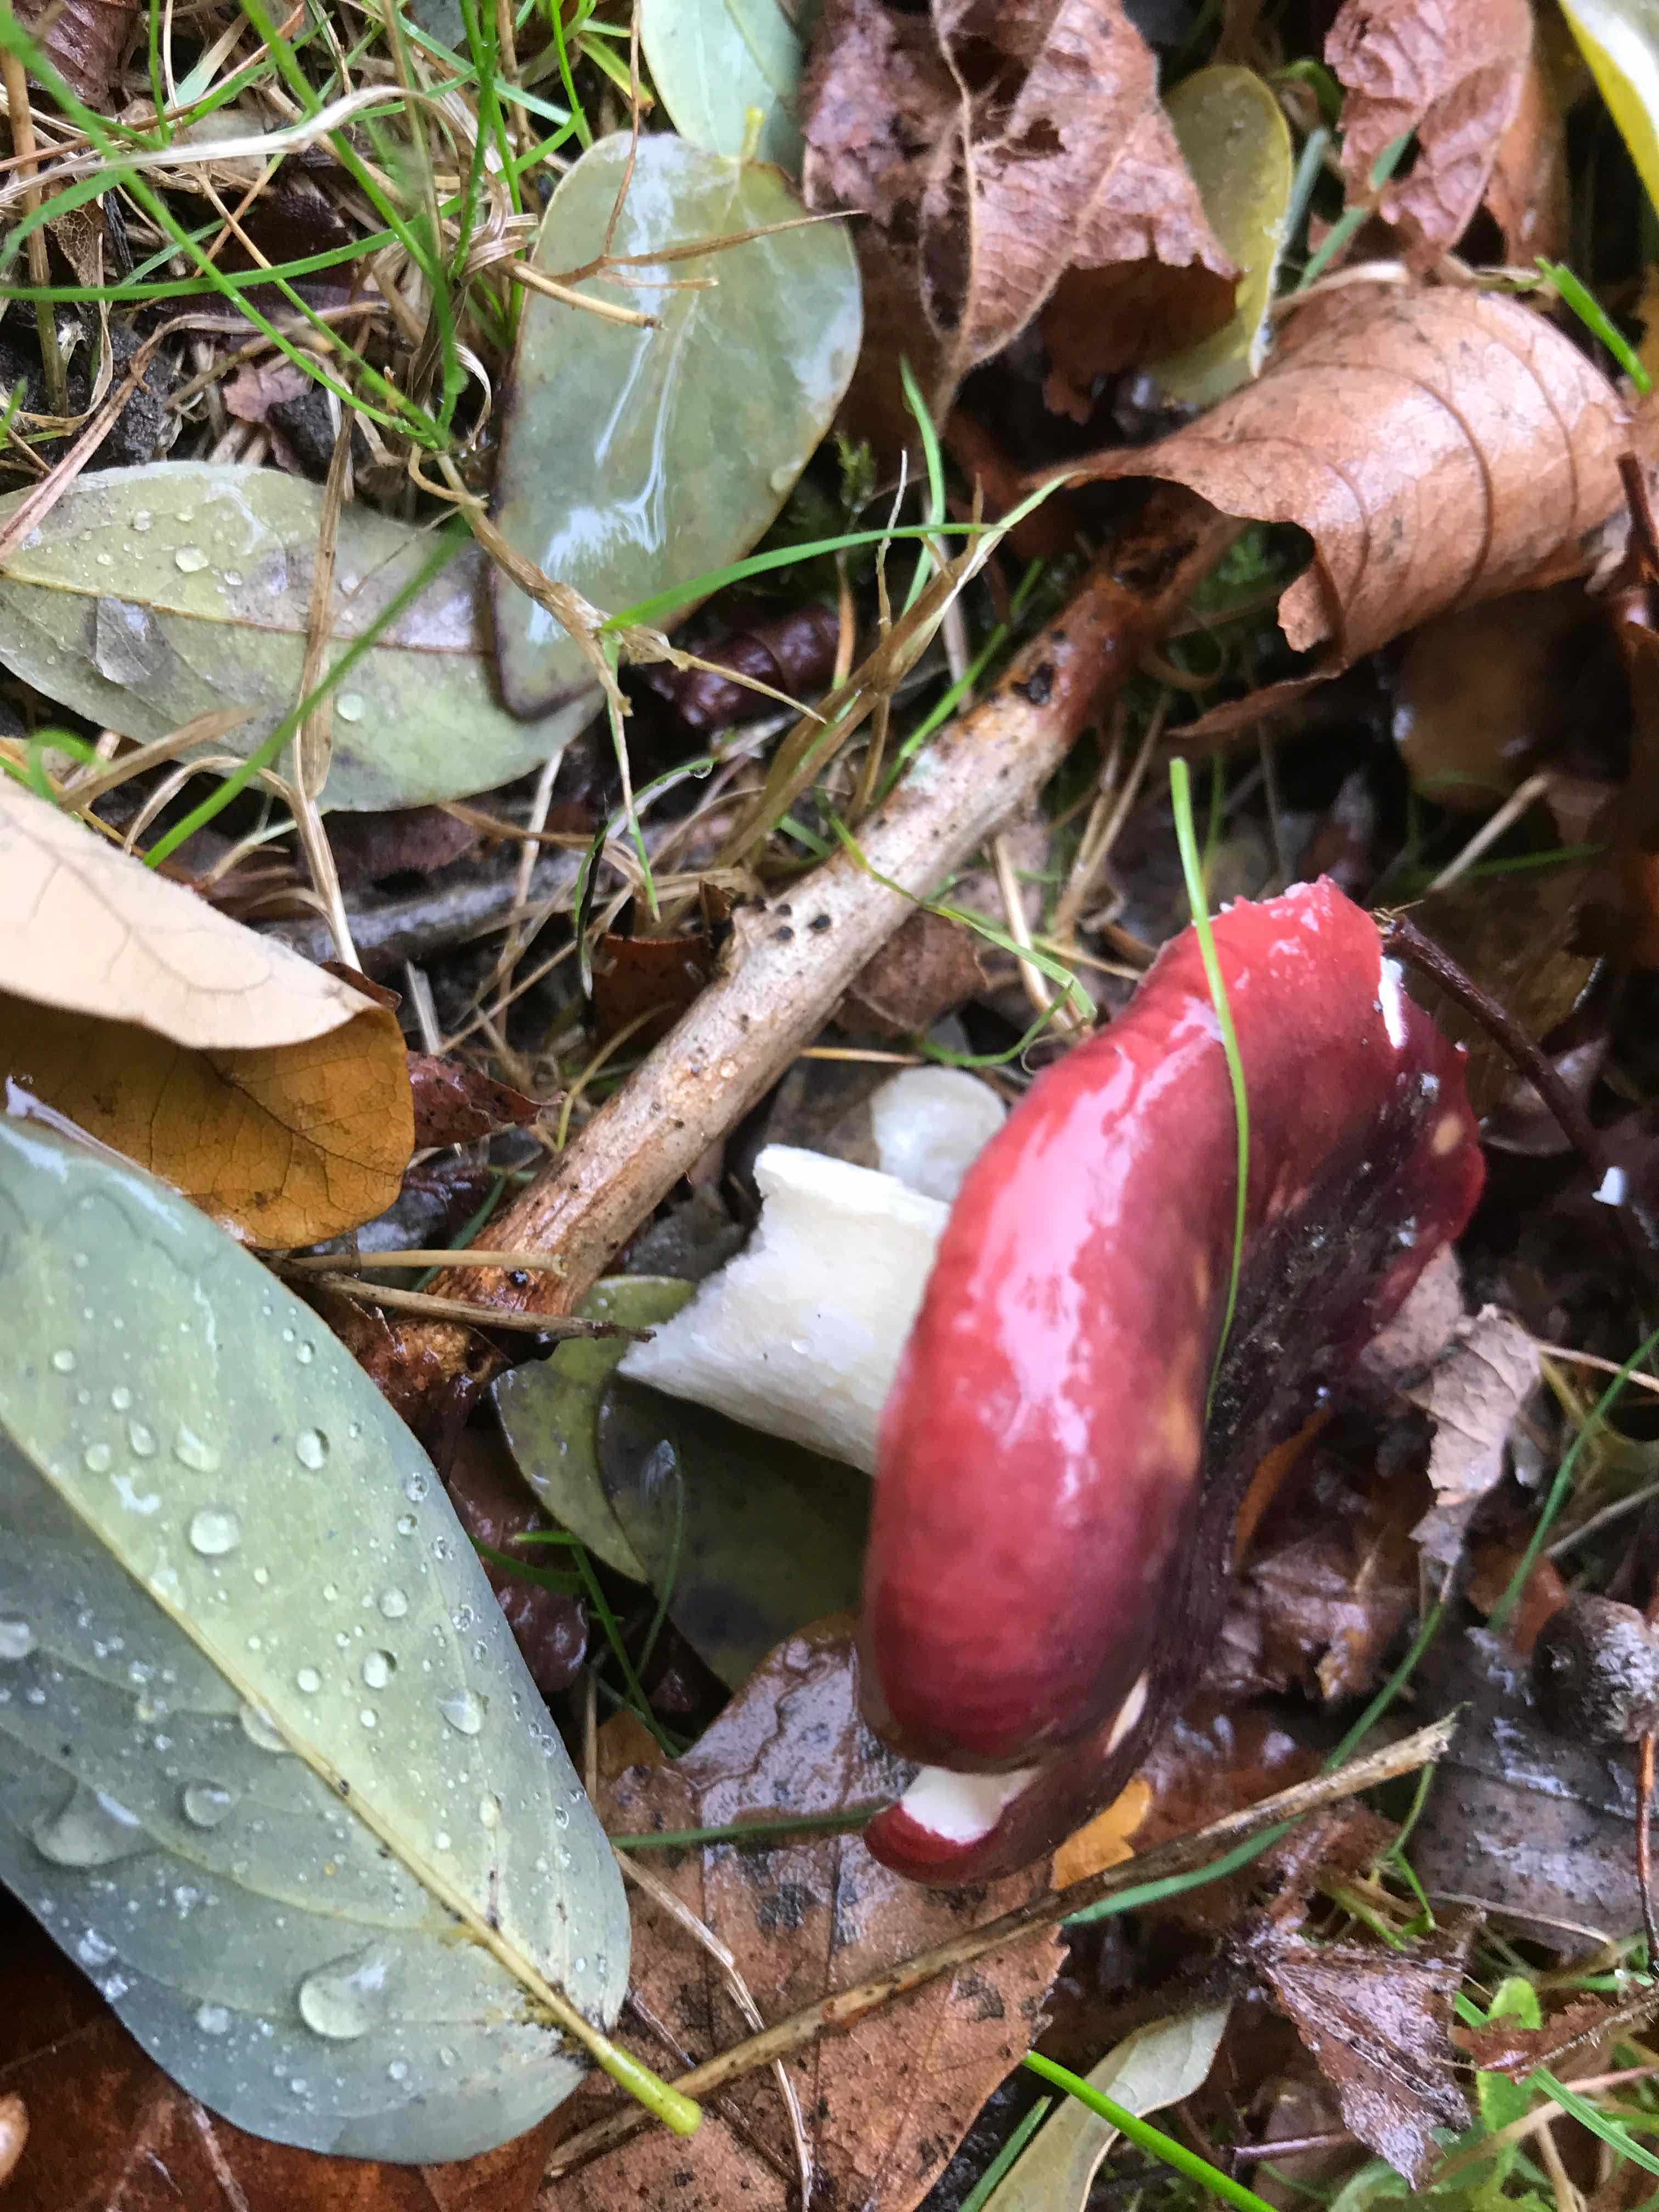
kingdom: Fungi
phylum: Basidiomycota
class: Agaricomycetes
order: Russulales
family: Russulaceae
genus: Russula
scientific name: Russula atropurpurea
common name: purpurbroget skørhat
